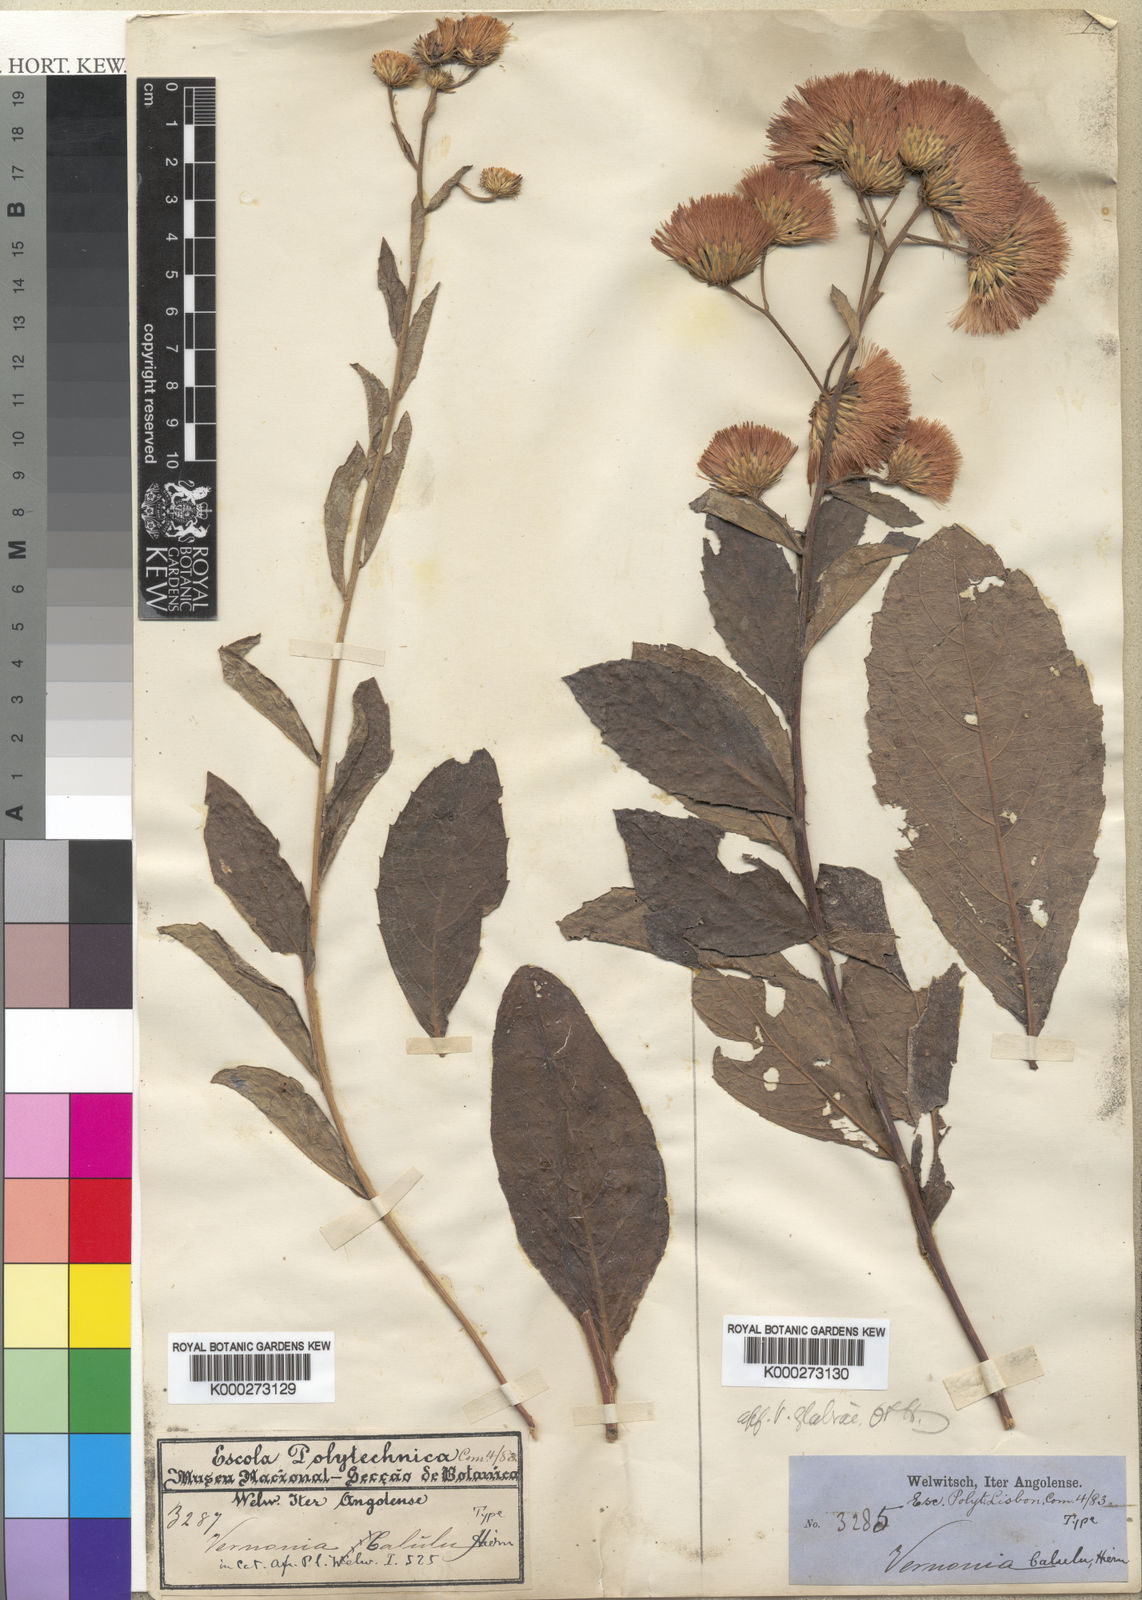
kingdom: Plantae
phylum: Tracheophyta
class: Magnoliopsida
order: Asterales
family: Asteraceae
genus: Vernonia
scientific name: Vernonia calulu
